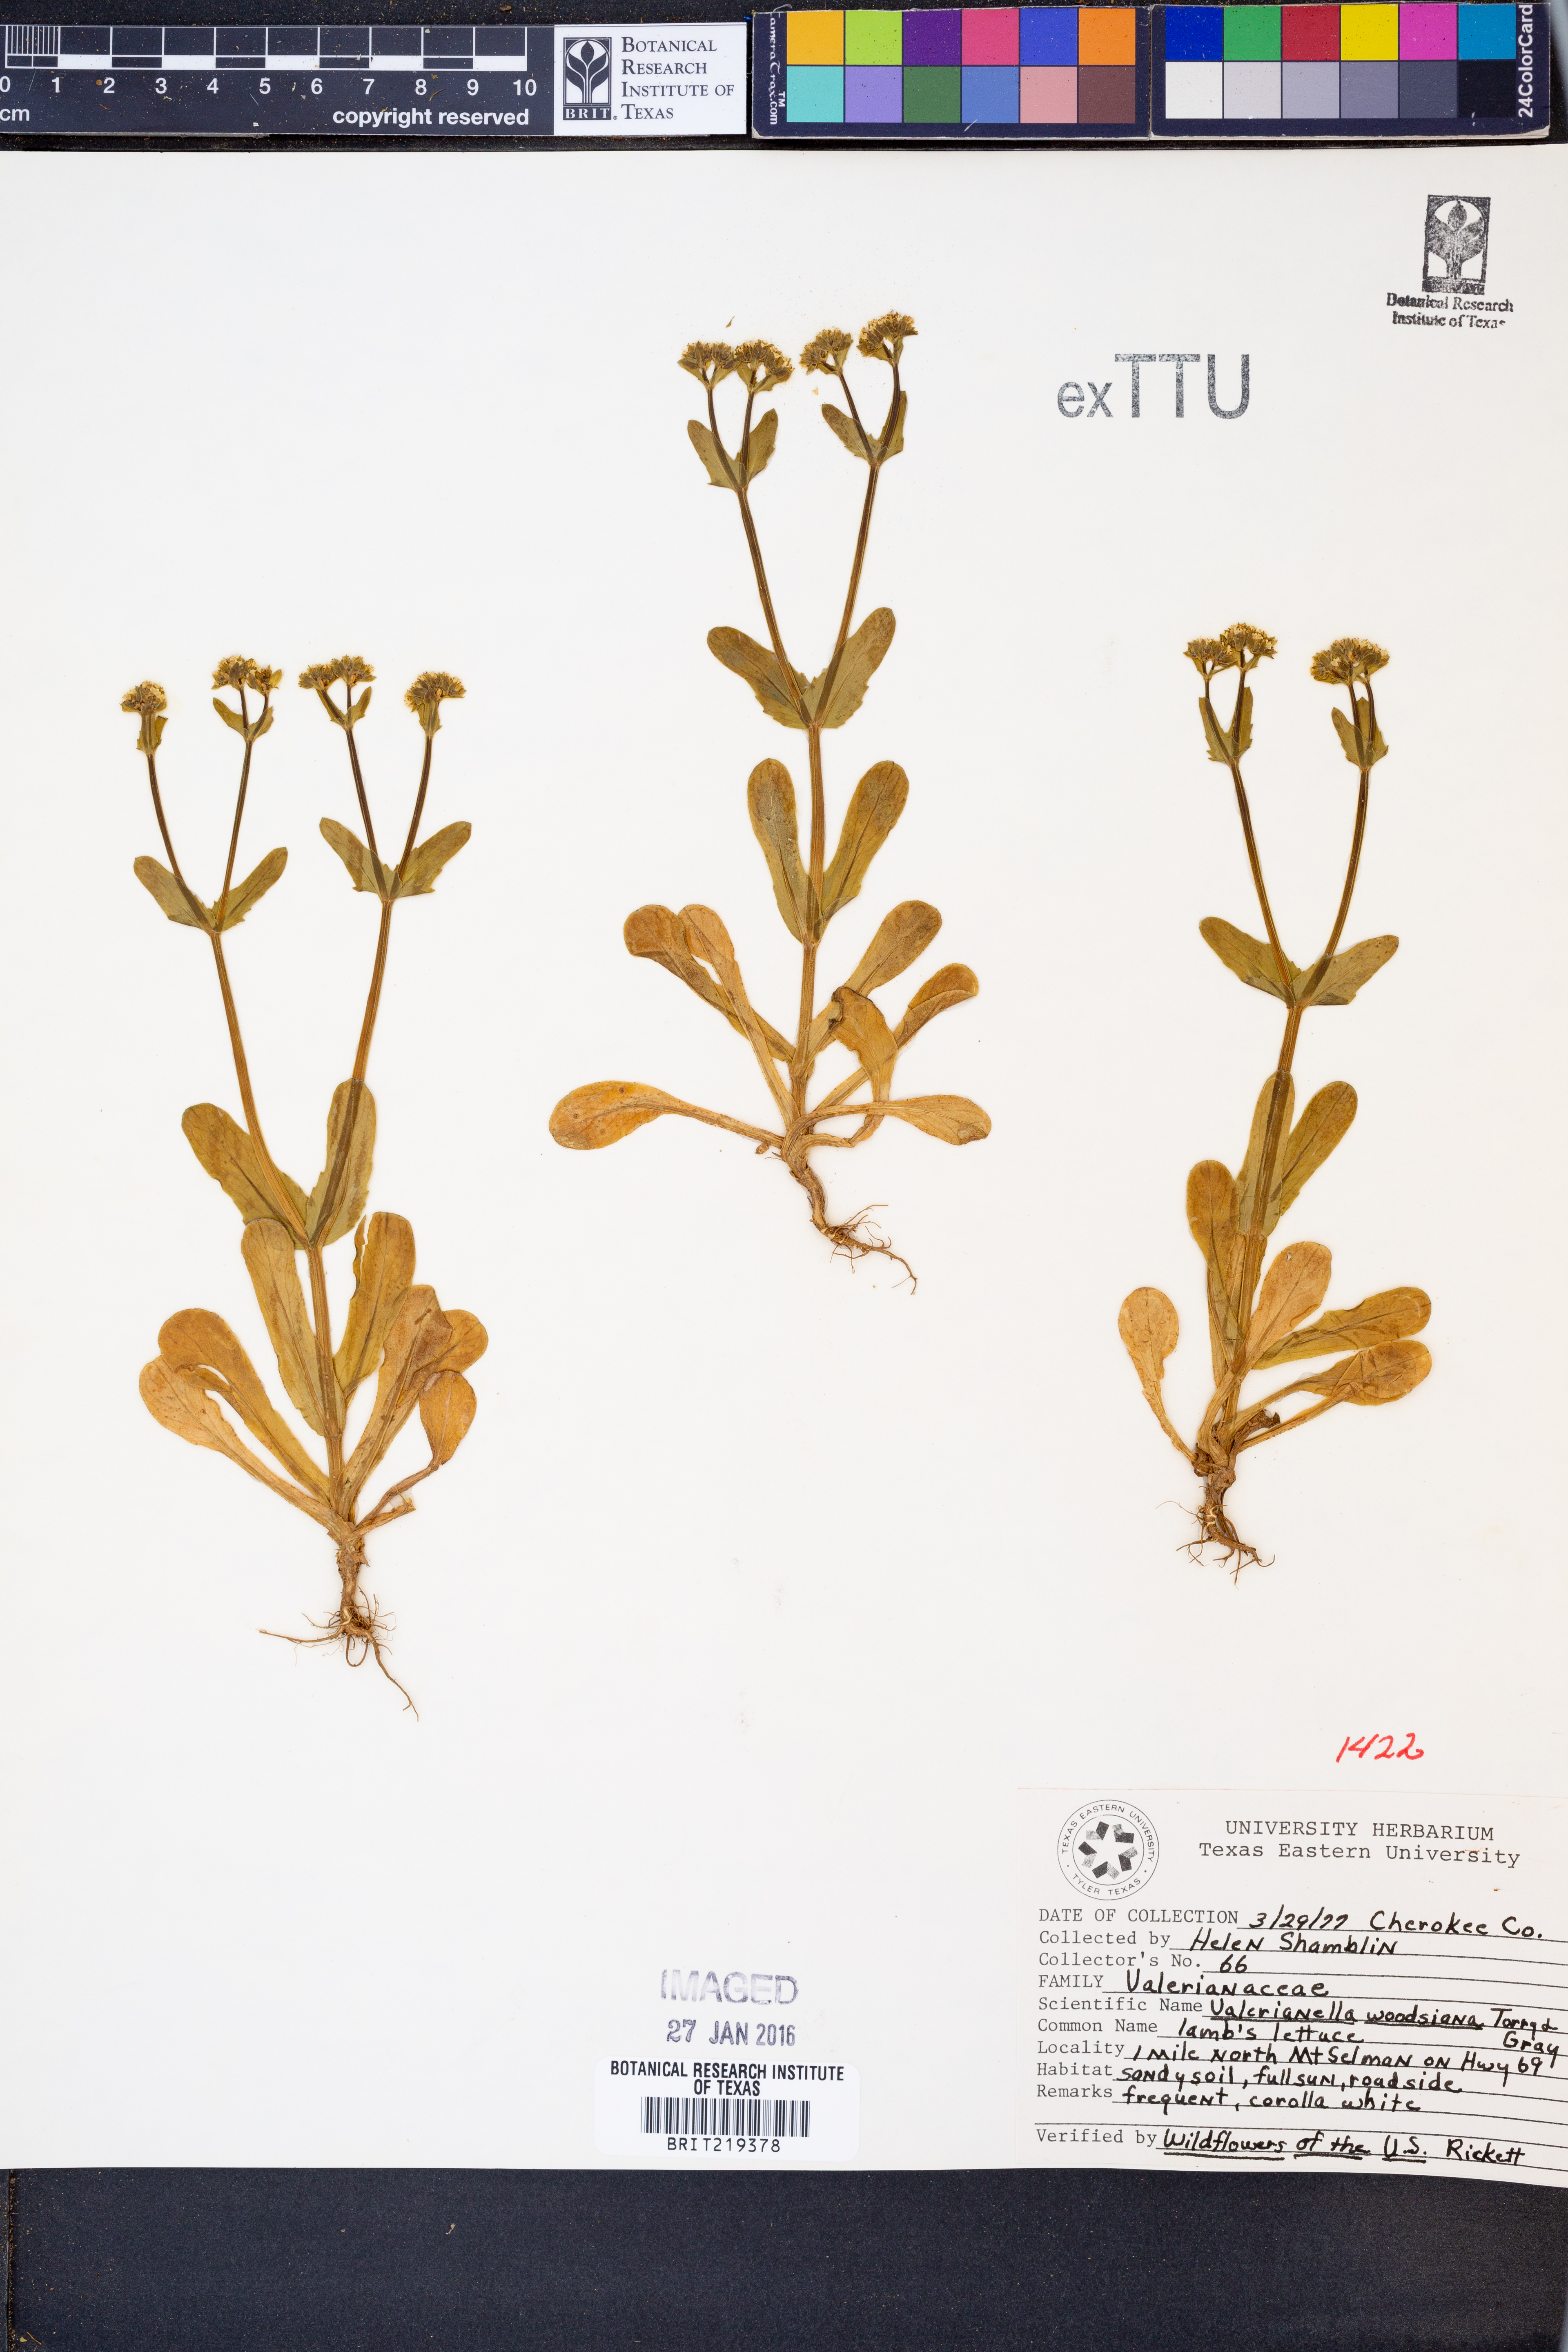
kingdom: Plantae
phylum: Tracheophyta
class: Magnoliopsida
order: Dipsacales
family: Caprifoliaceae
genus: Valerianella
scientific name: Valerianella radiata
